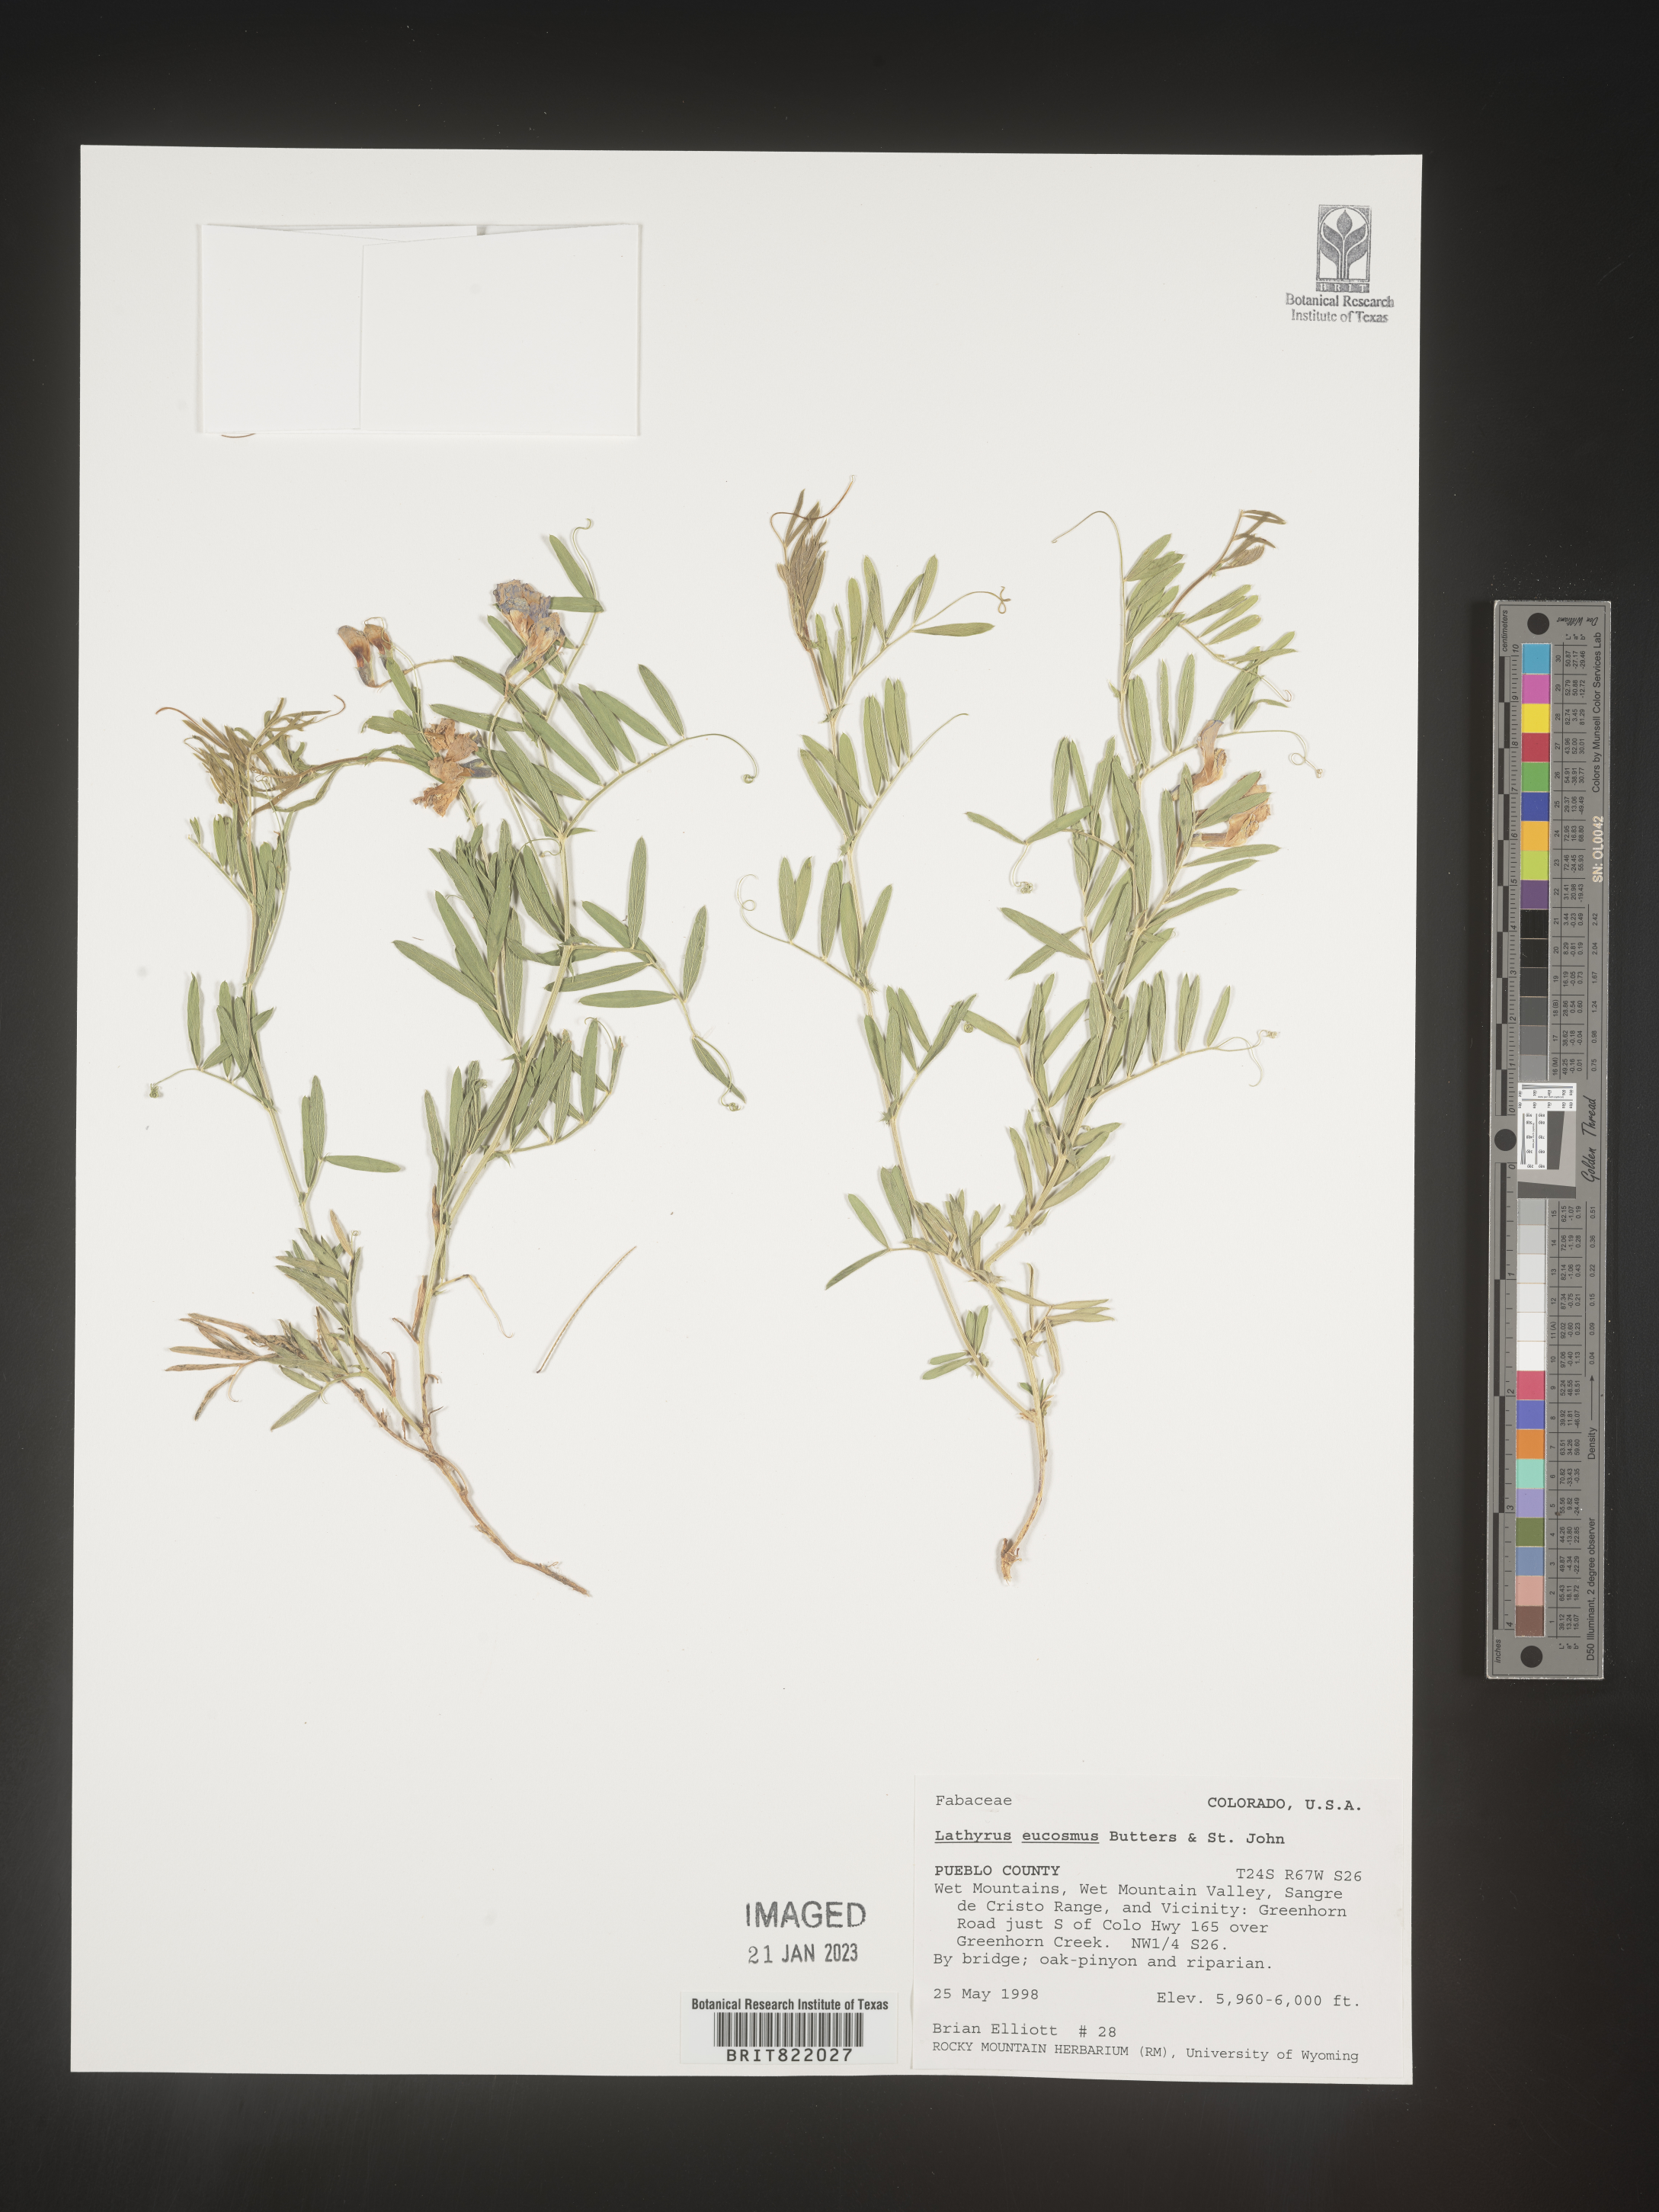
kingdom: Plantae
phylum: Tracheophyta
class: Magnoliopsida
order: Fabales
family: Fabaceae
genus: Lathyrus
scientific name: Lathyrus
